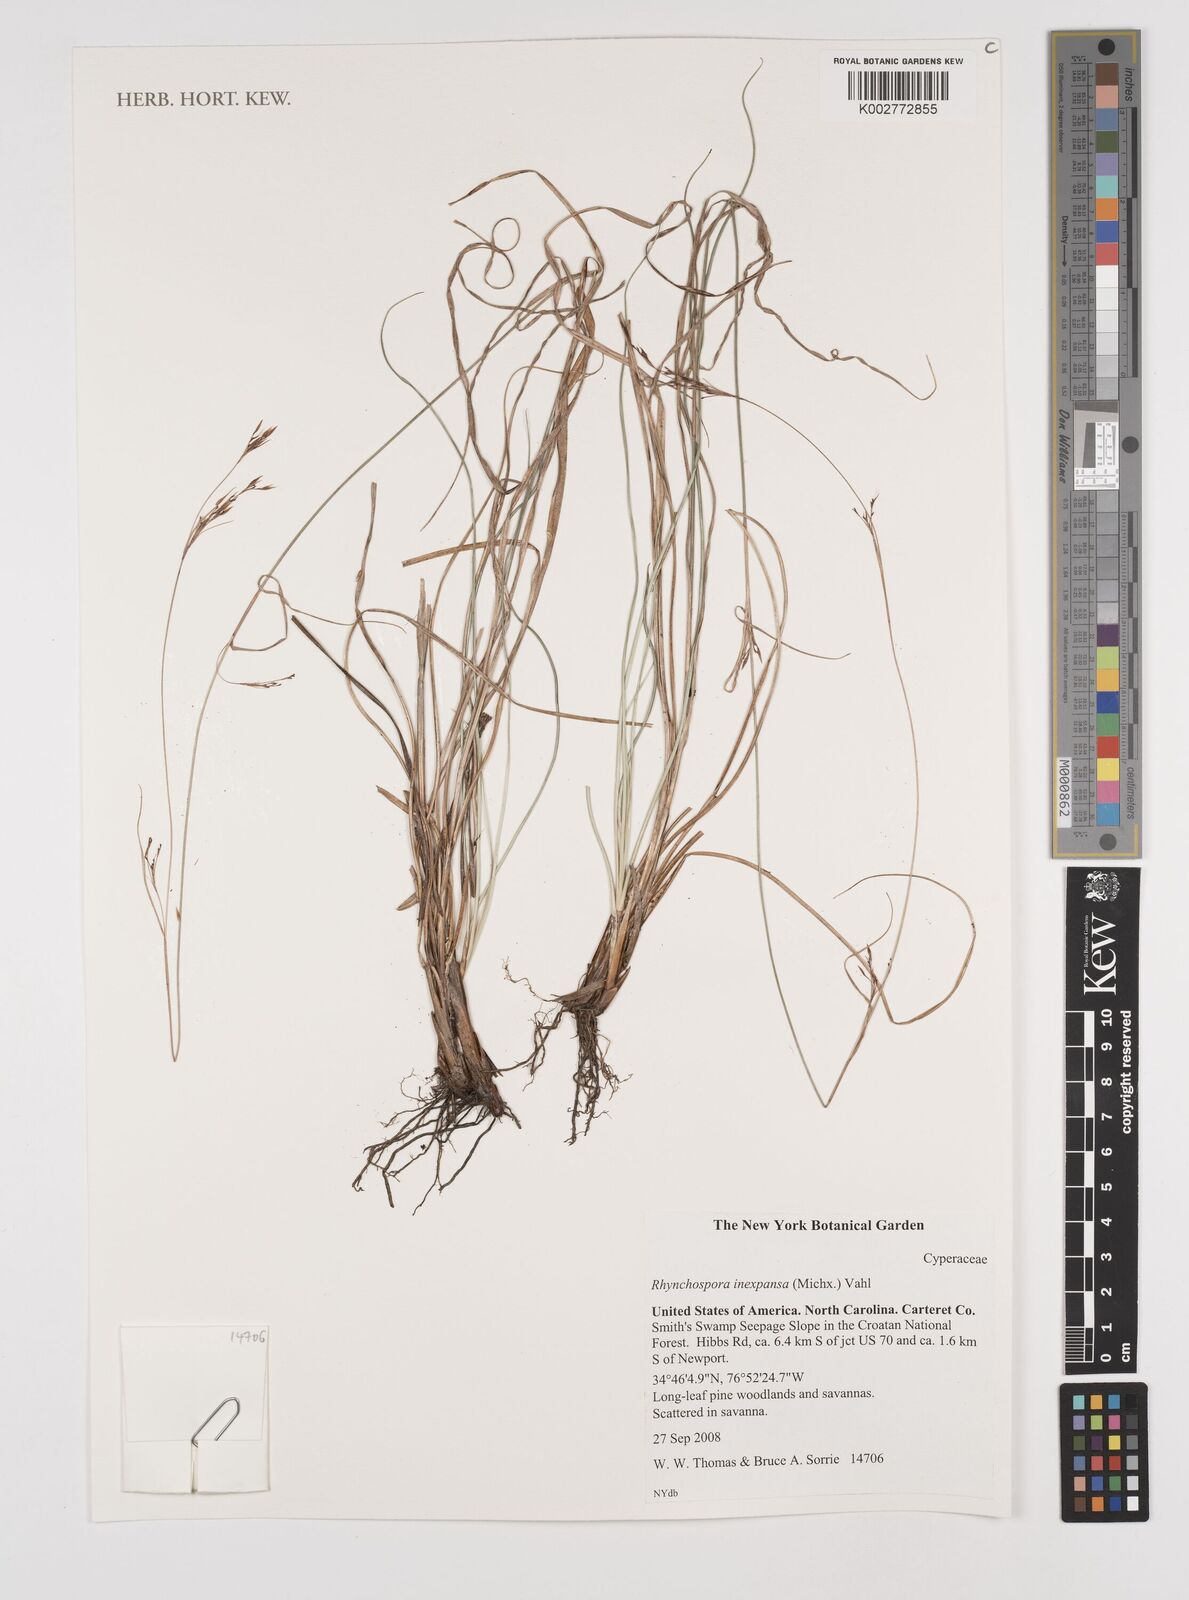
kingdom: Plantae
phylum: Tracheophyta
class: Liliopsida
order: Poales
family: Cyperaceae
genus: Rhynchospora
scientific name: Rhynchospora inexpansa
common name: Nodding beaksedge
